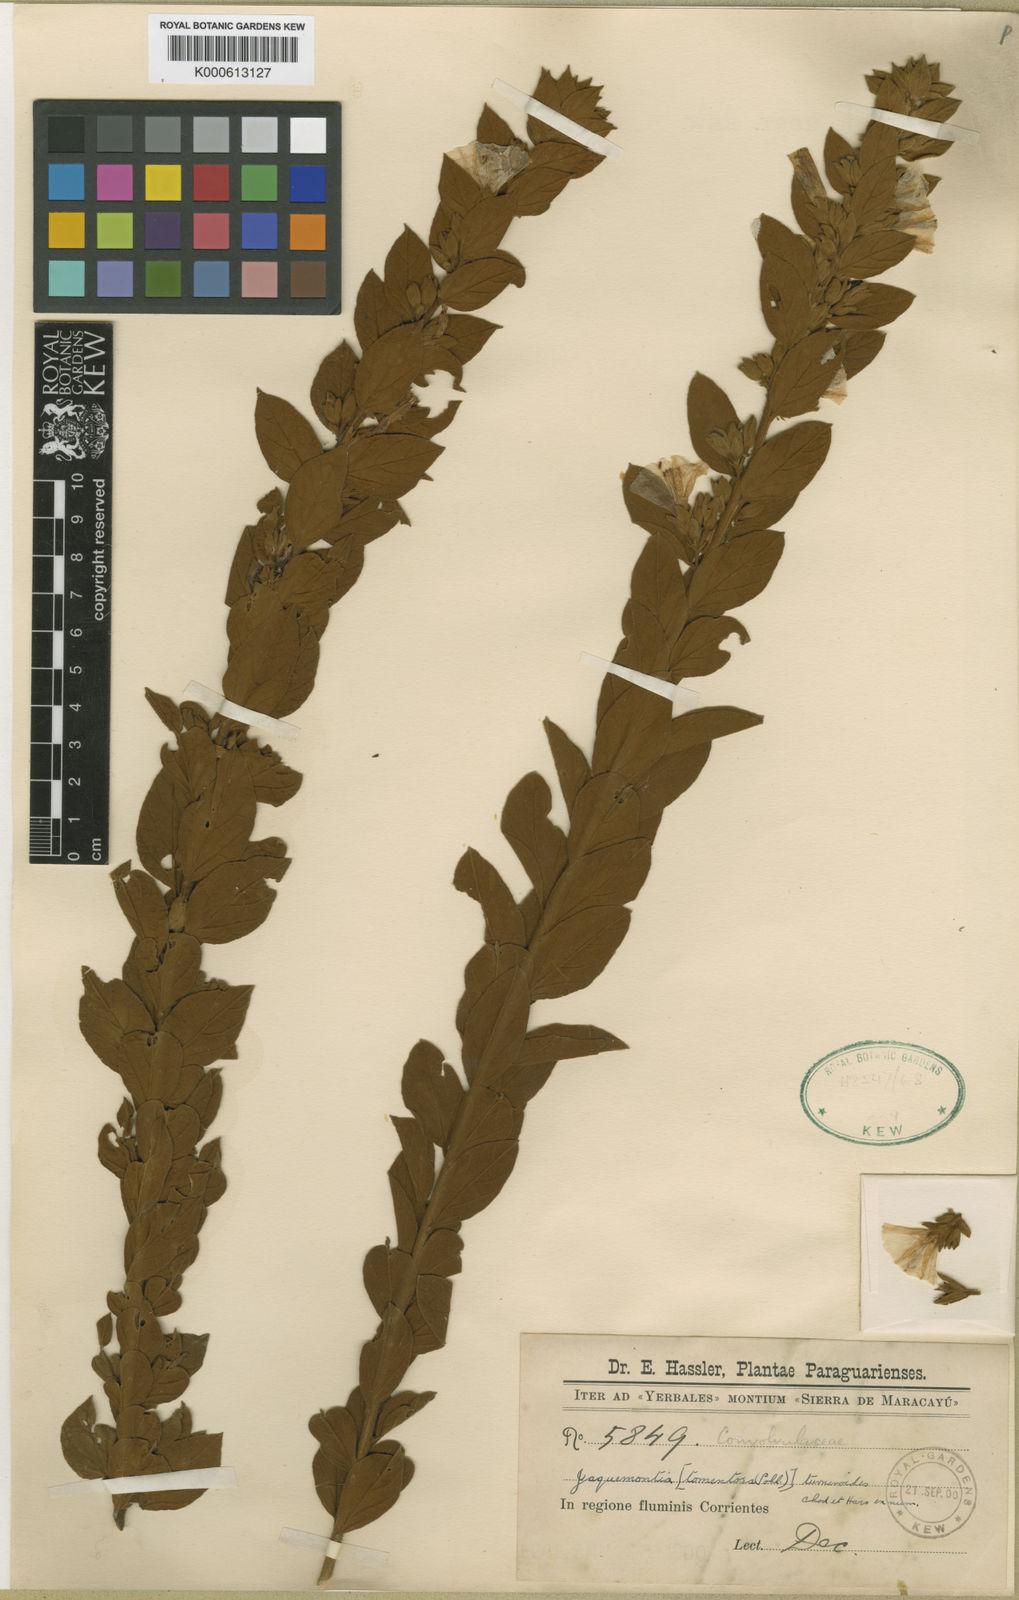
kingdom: Plantae
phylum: Tracheophyta
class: Magnoliopsida
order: Solanales
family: Convolvulaceae
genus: Jacquemontia
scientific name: Jacquemontia turneroides
